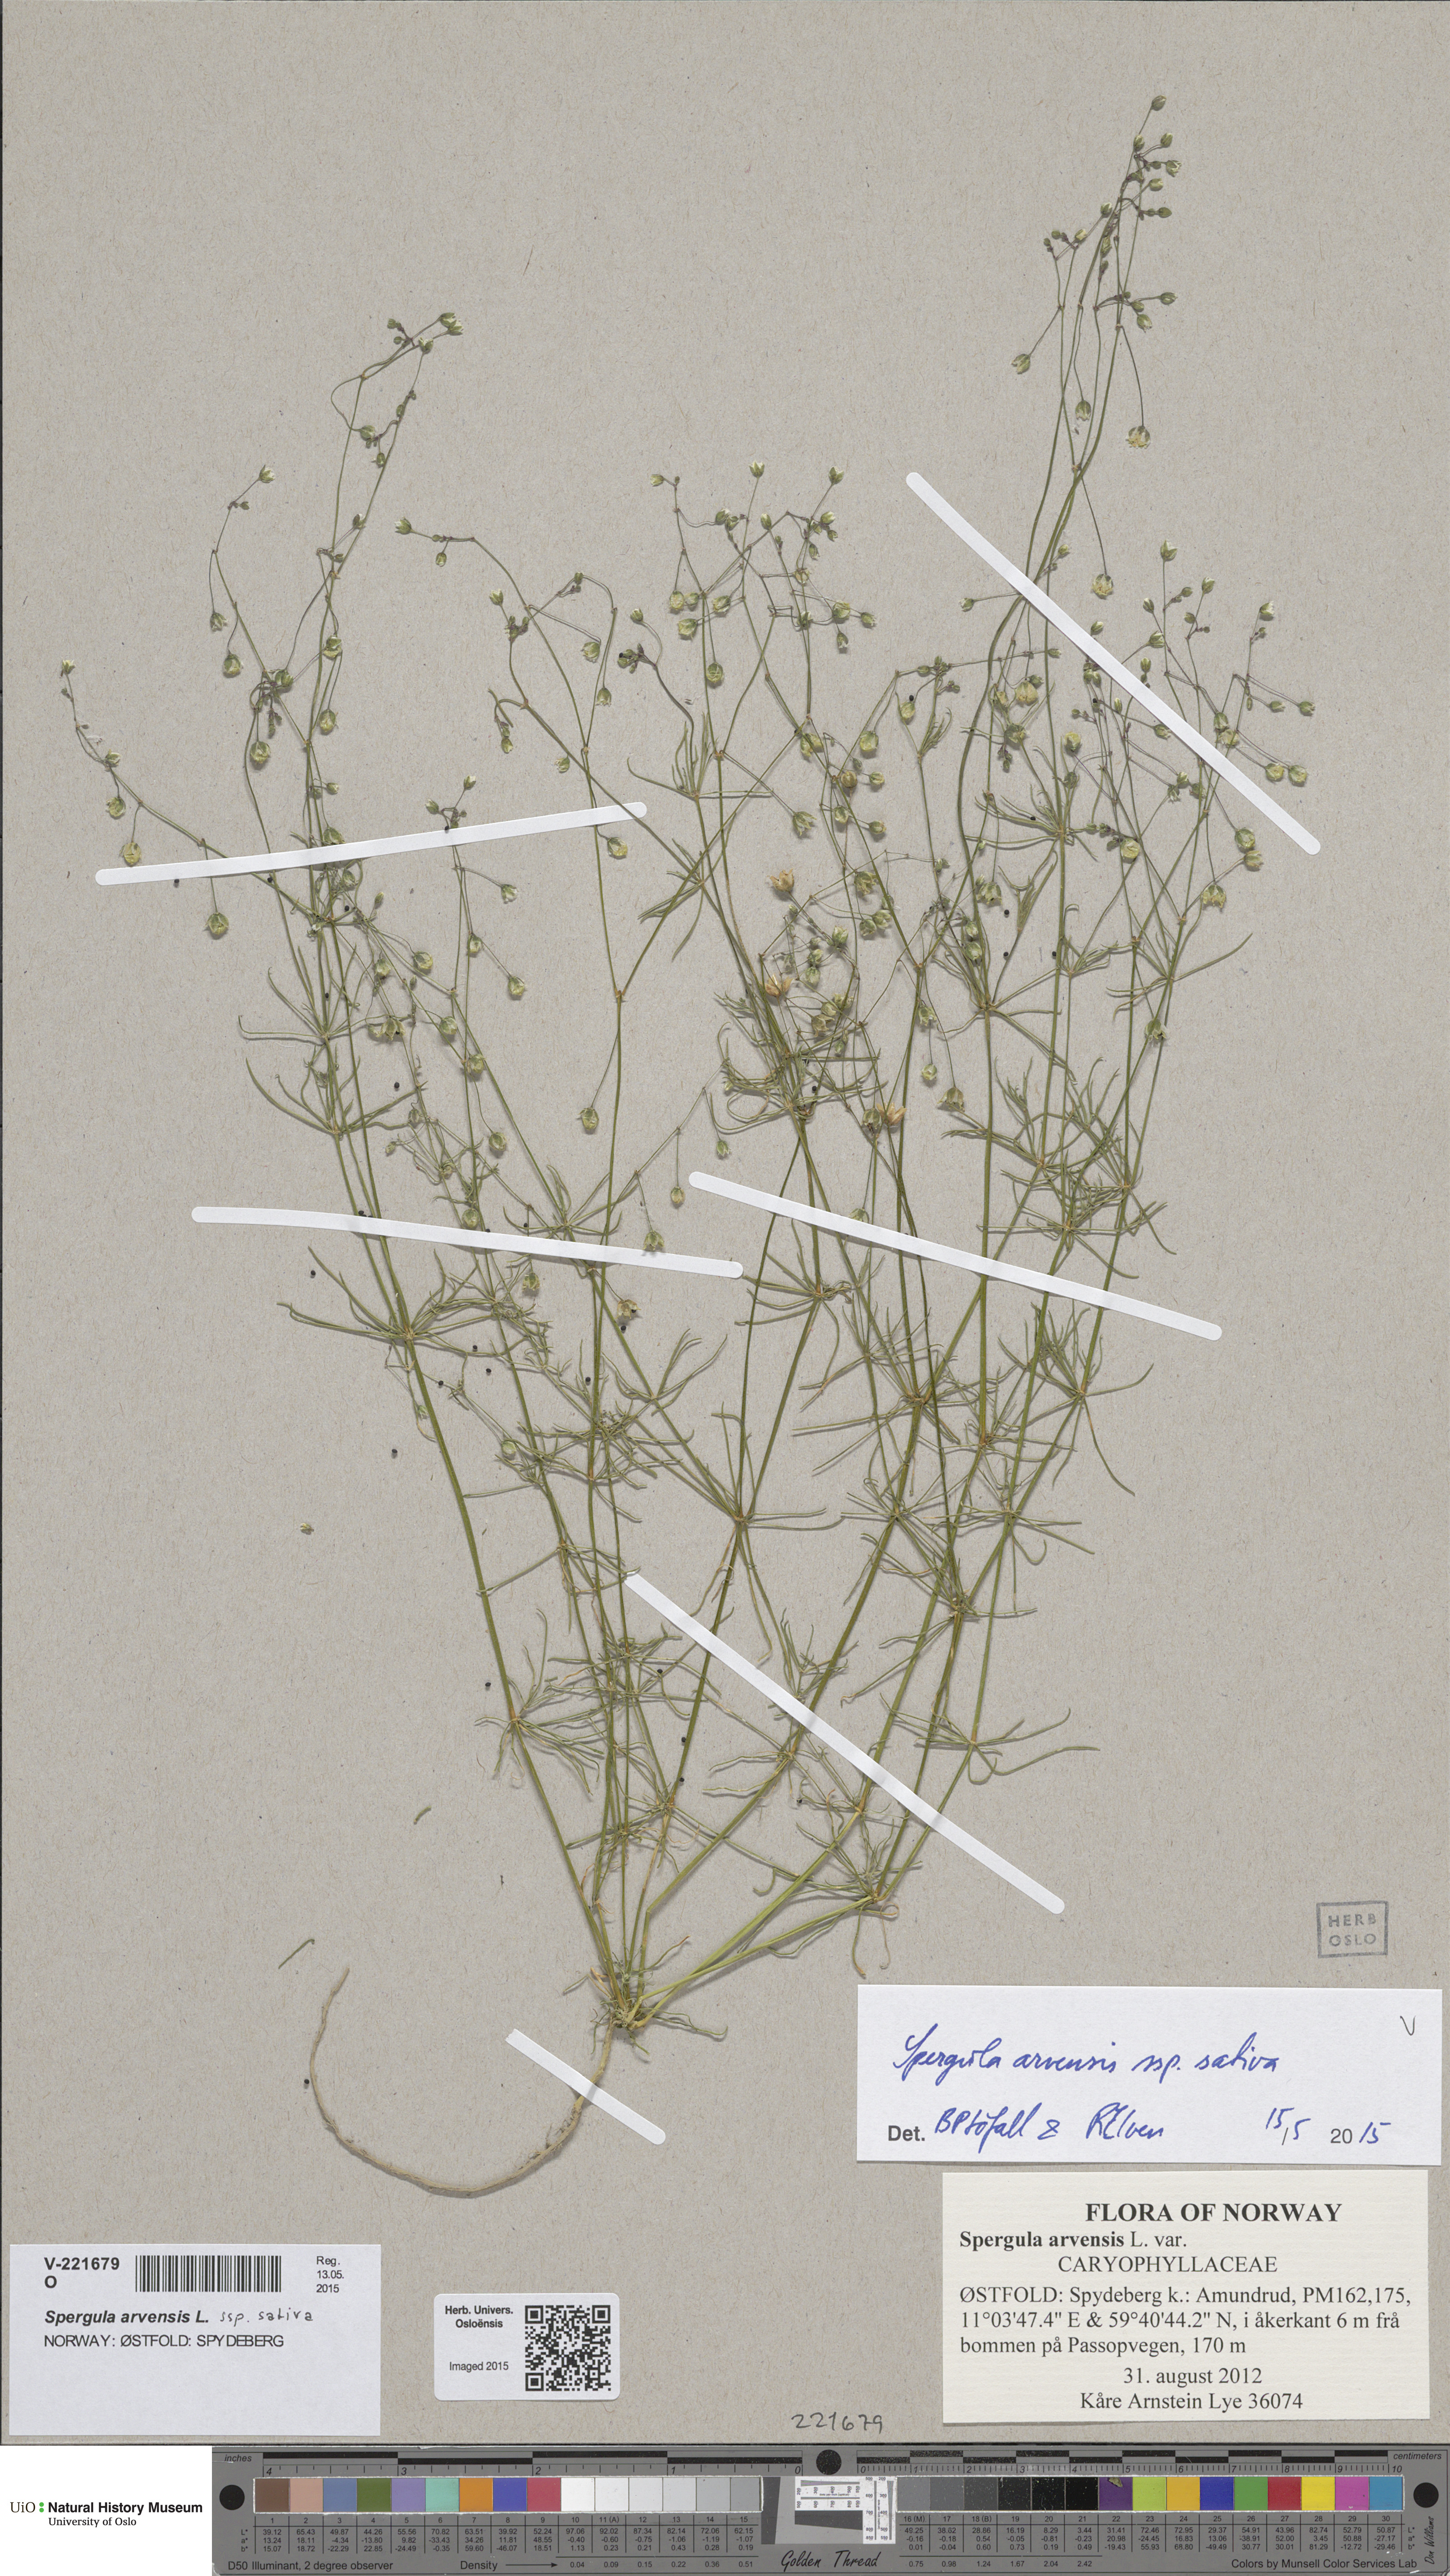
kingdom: Plantae
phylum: Tracheophyta
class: Magnoliopsida
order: Caryophyllales
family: Caryophyllaceae
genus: Spergula
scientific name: Spergula arvensis
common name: Corn spurrey
